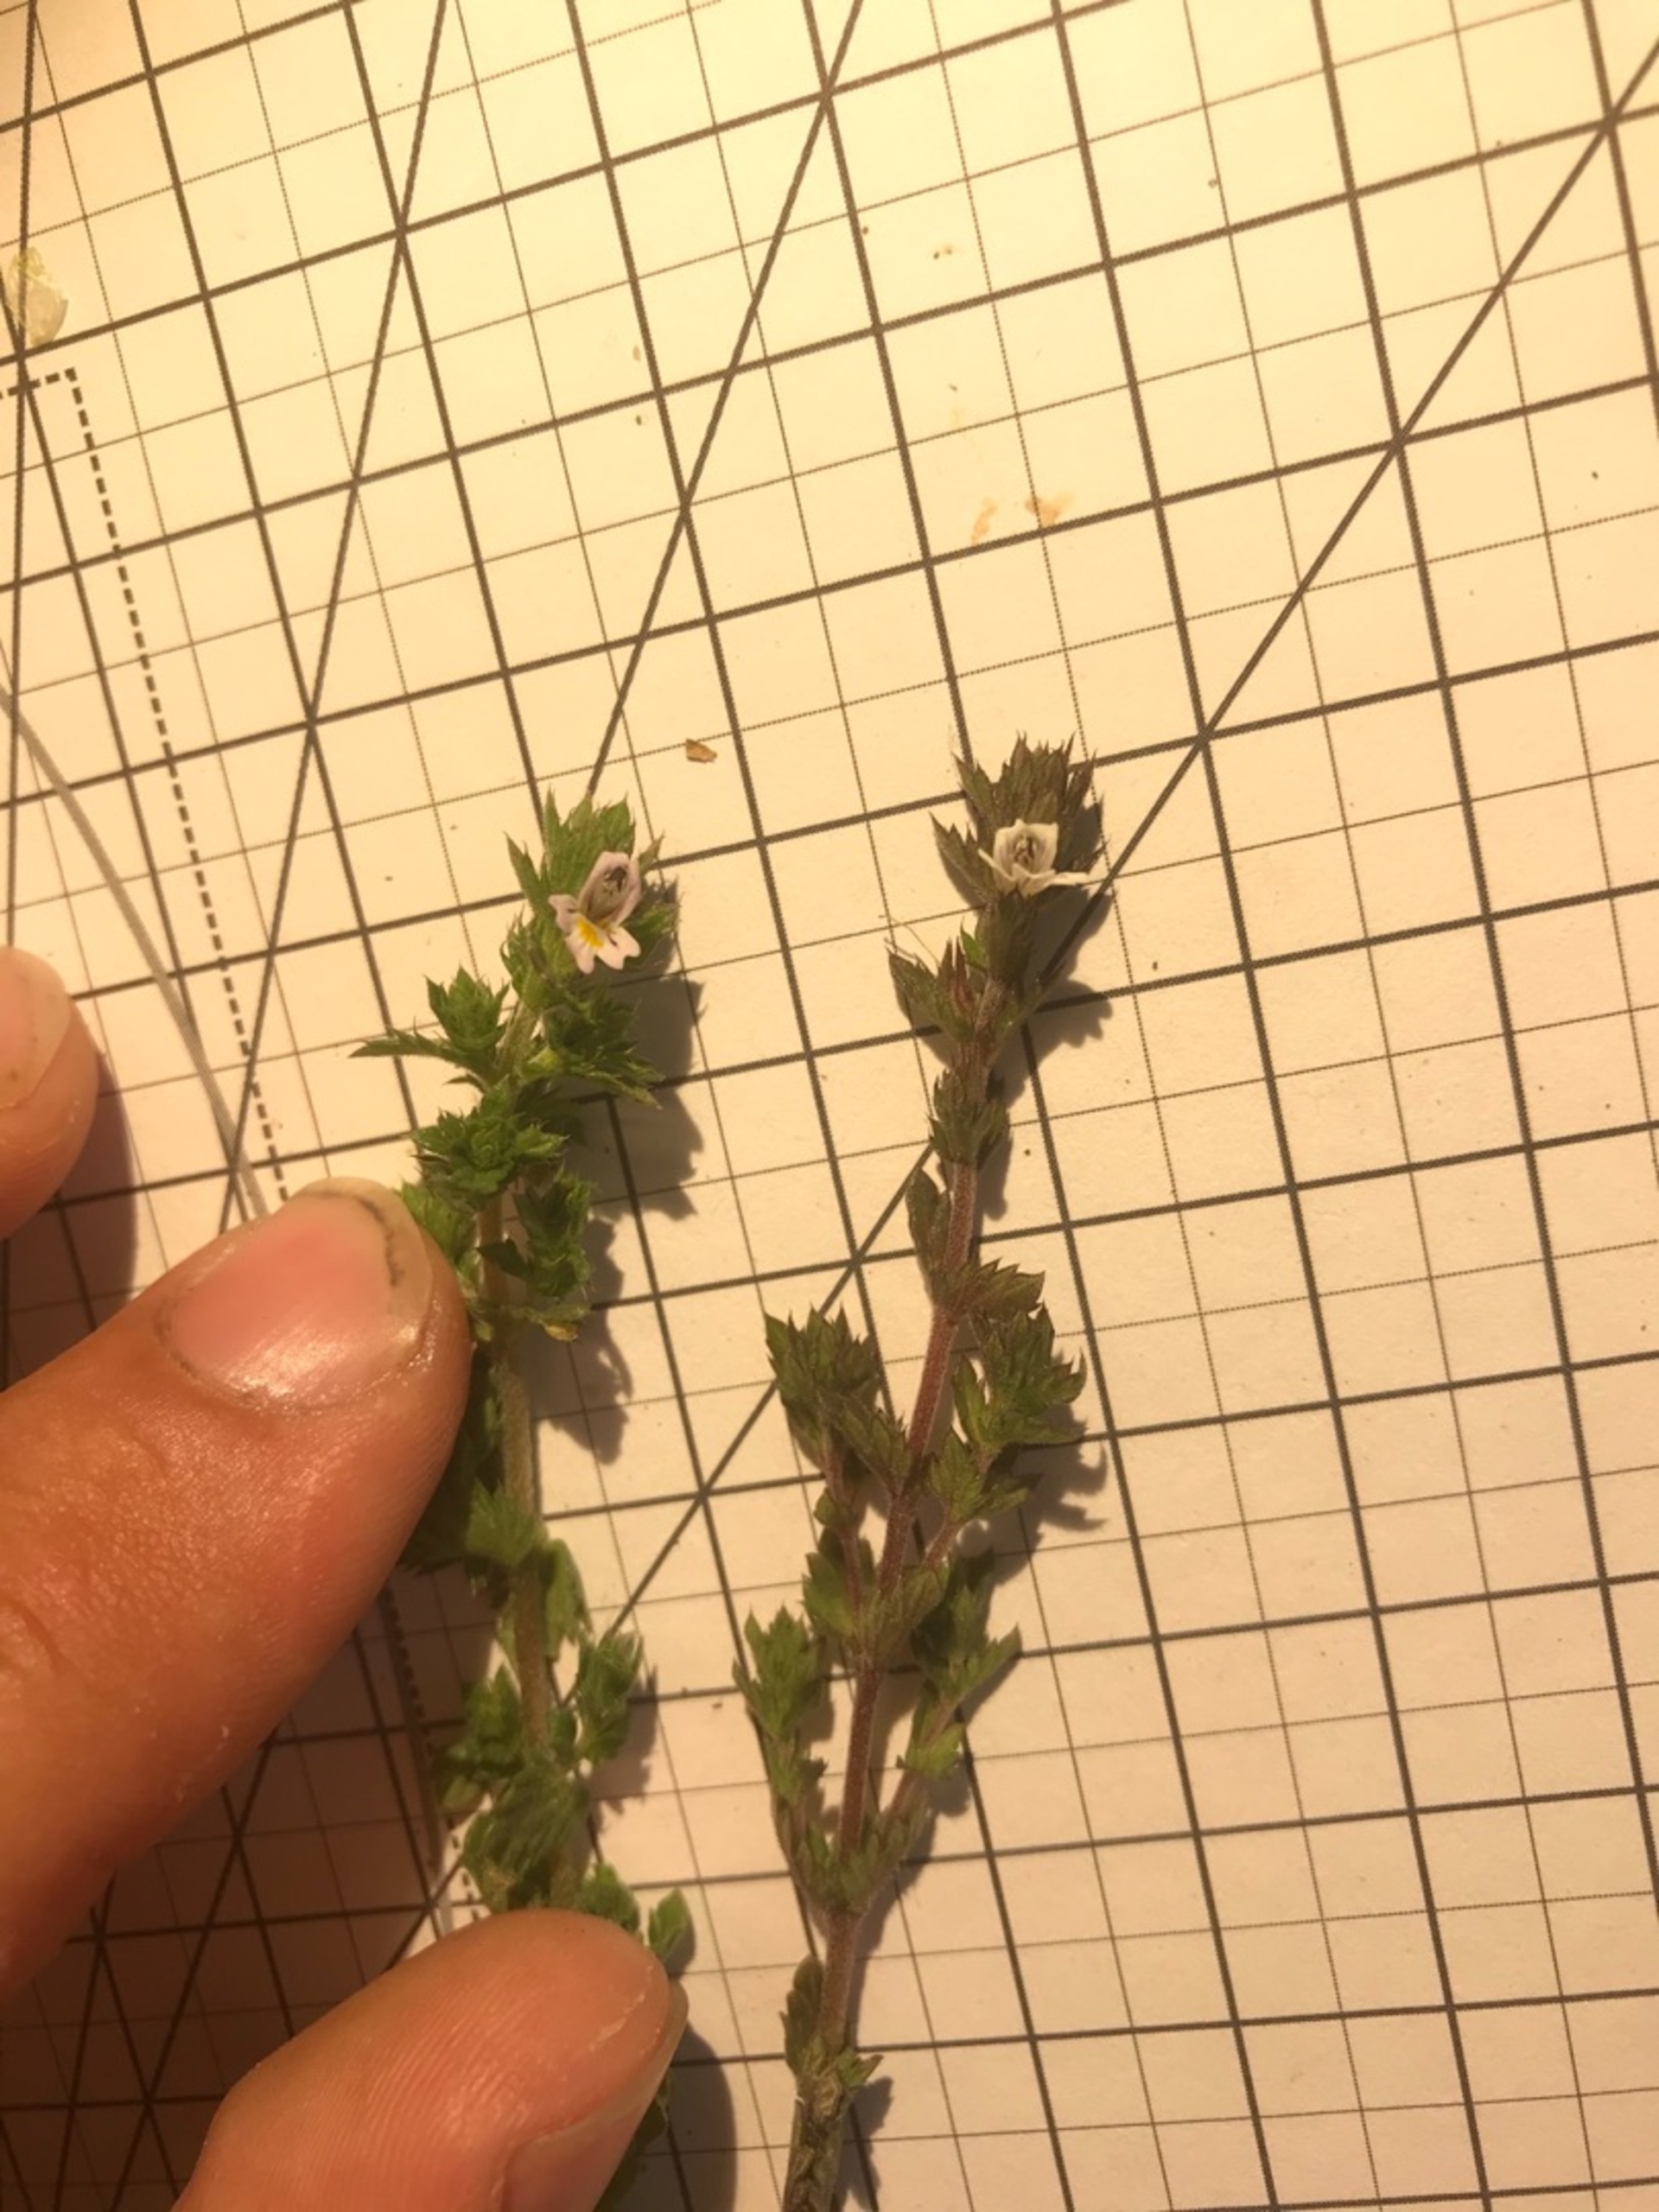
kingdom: Plantae
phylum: Tracheophyta
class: Magnoliopsida
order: Lamiales
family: Orobanchaceae
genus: Euphrasia
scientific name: Euphrasia stricta
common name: Spids øjentrøst
